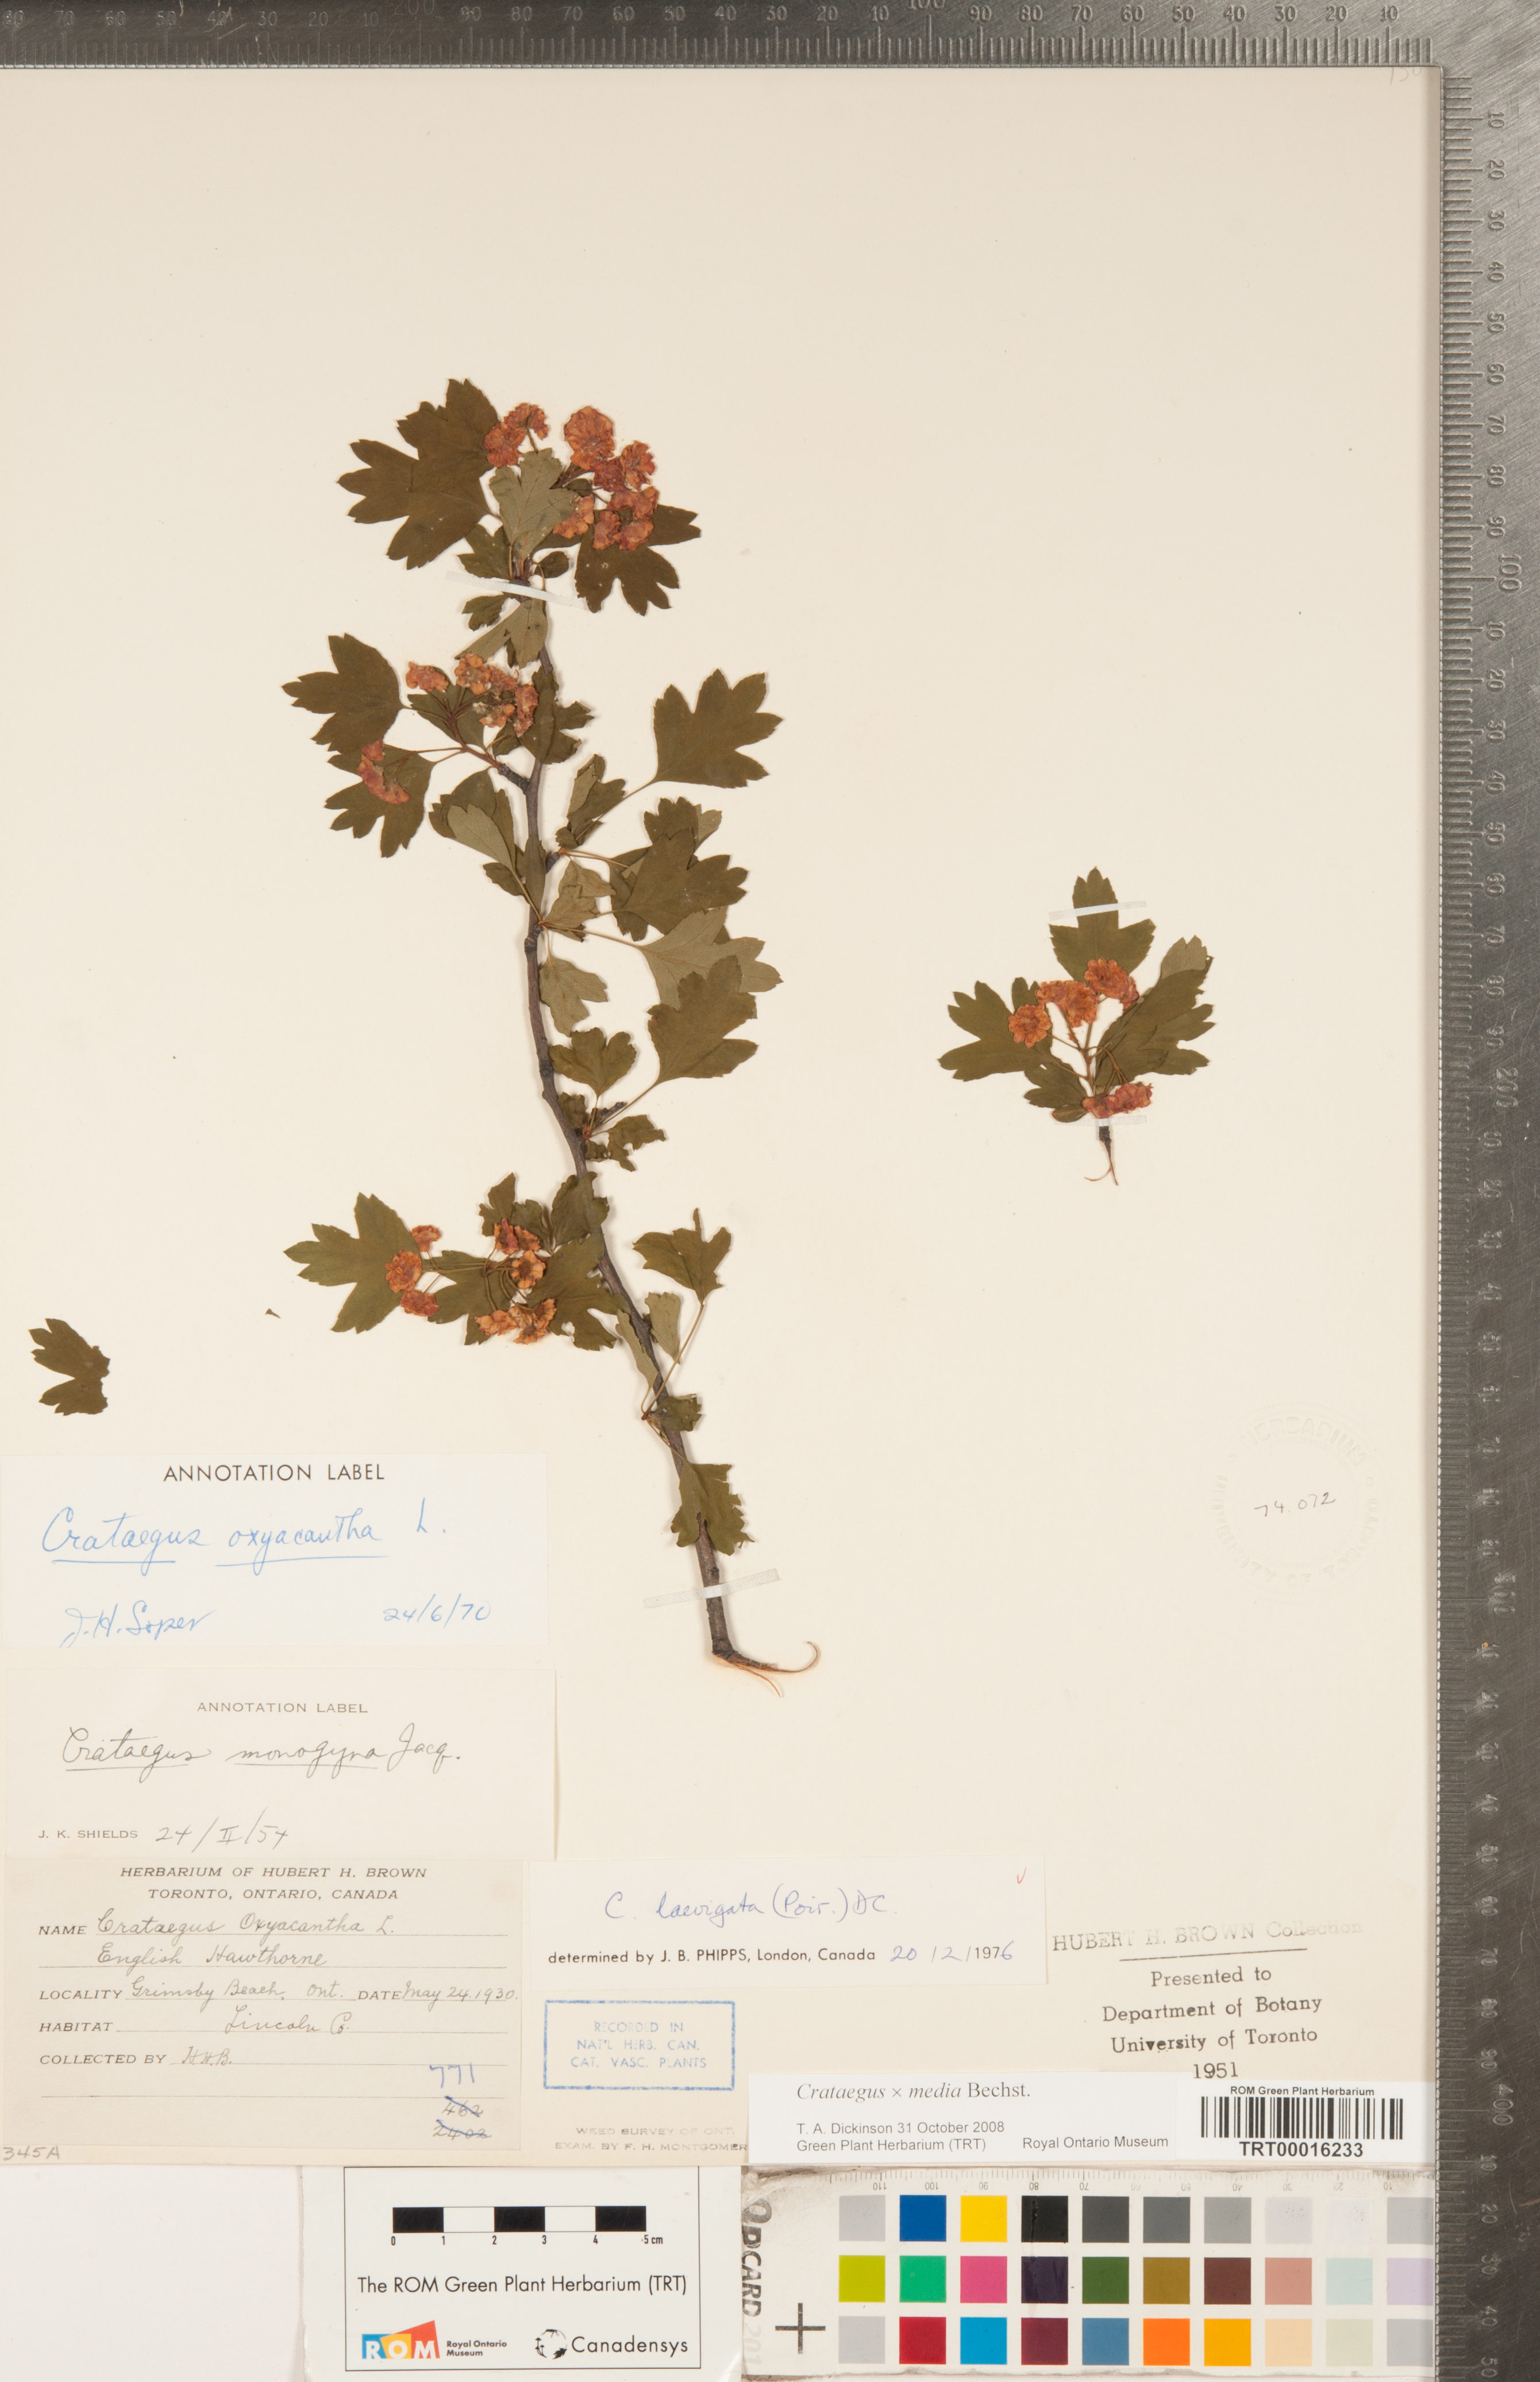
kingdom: Plantae
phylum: Tracheophyta
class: Magnoliopsida
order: Rosales
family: Rosaceae
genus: Crataegus
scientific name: Crataegus media
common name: Intermediate hawthorn
